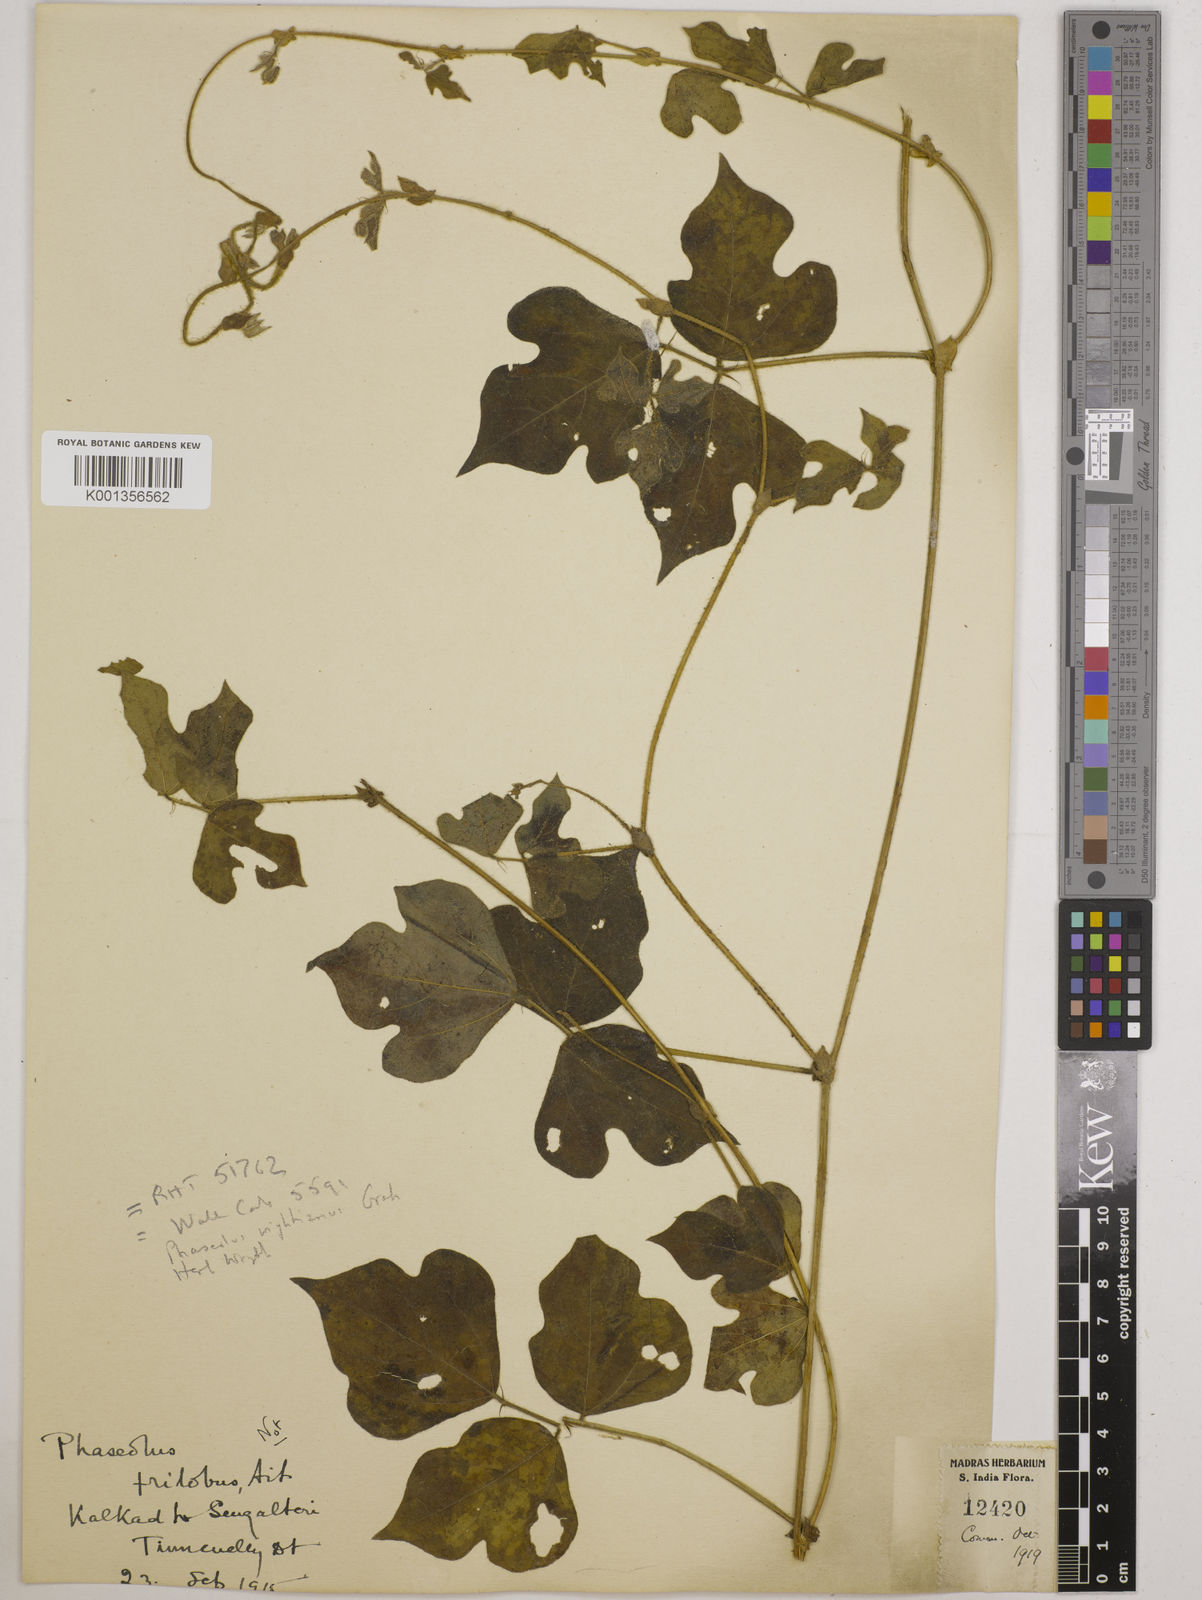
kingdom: Plantae
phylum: Tracheophyta
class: Magnoliopsida
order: Fabales
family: Fabaceae
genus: Vigna
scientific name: Vigna subramaniana
